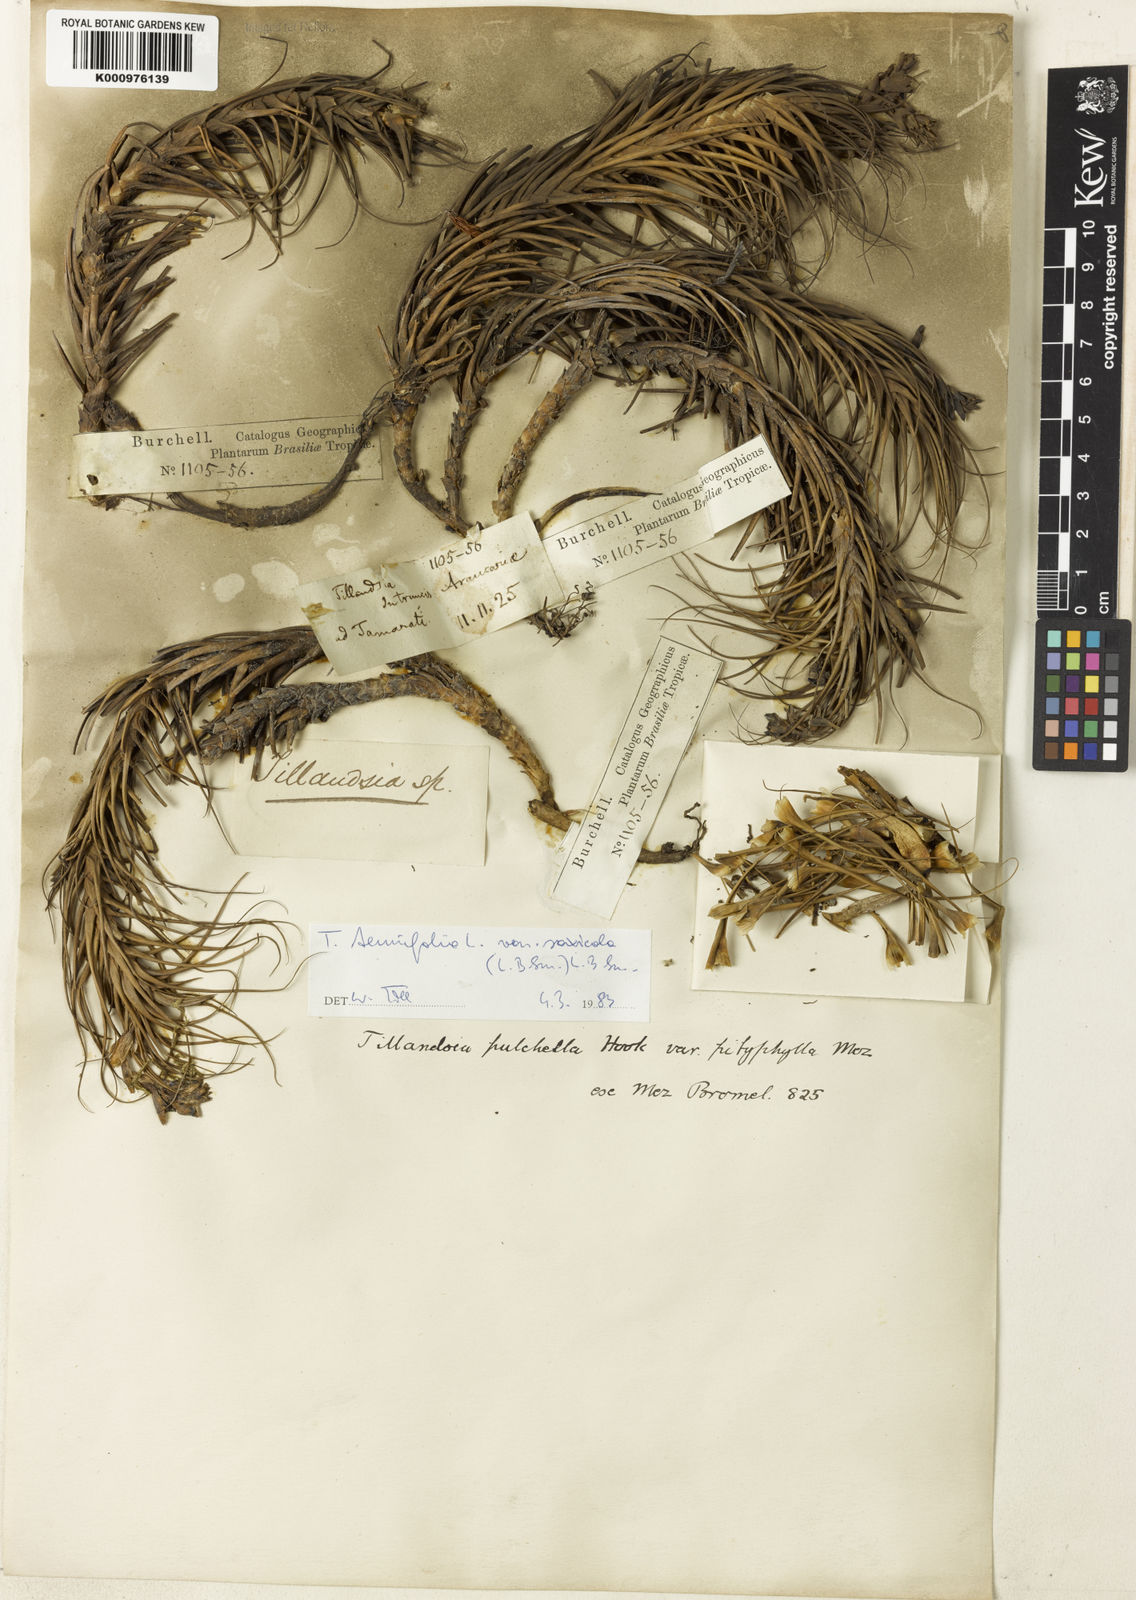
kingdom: Plantae
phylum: Tracheophyta
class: Liliopsida
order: Poales
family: Bromeliaceae
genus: Tillandsia
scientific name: Tillandsia tenuifolia
